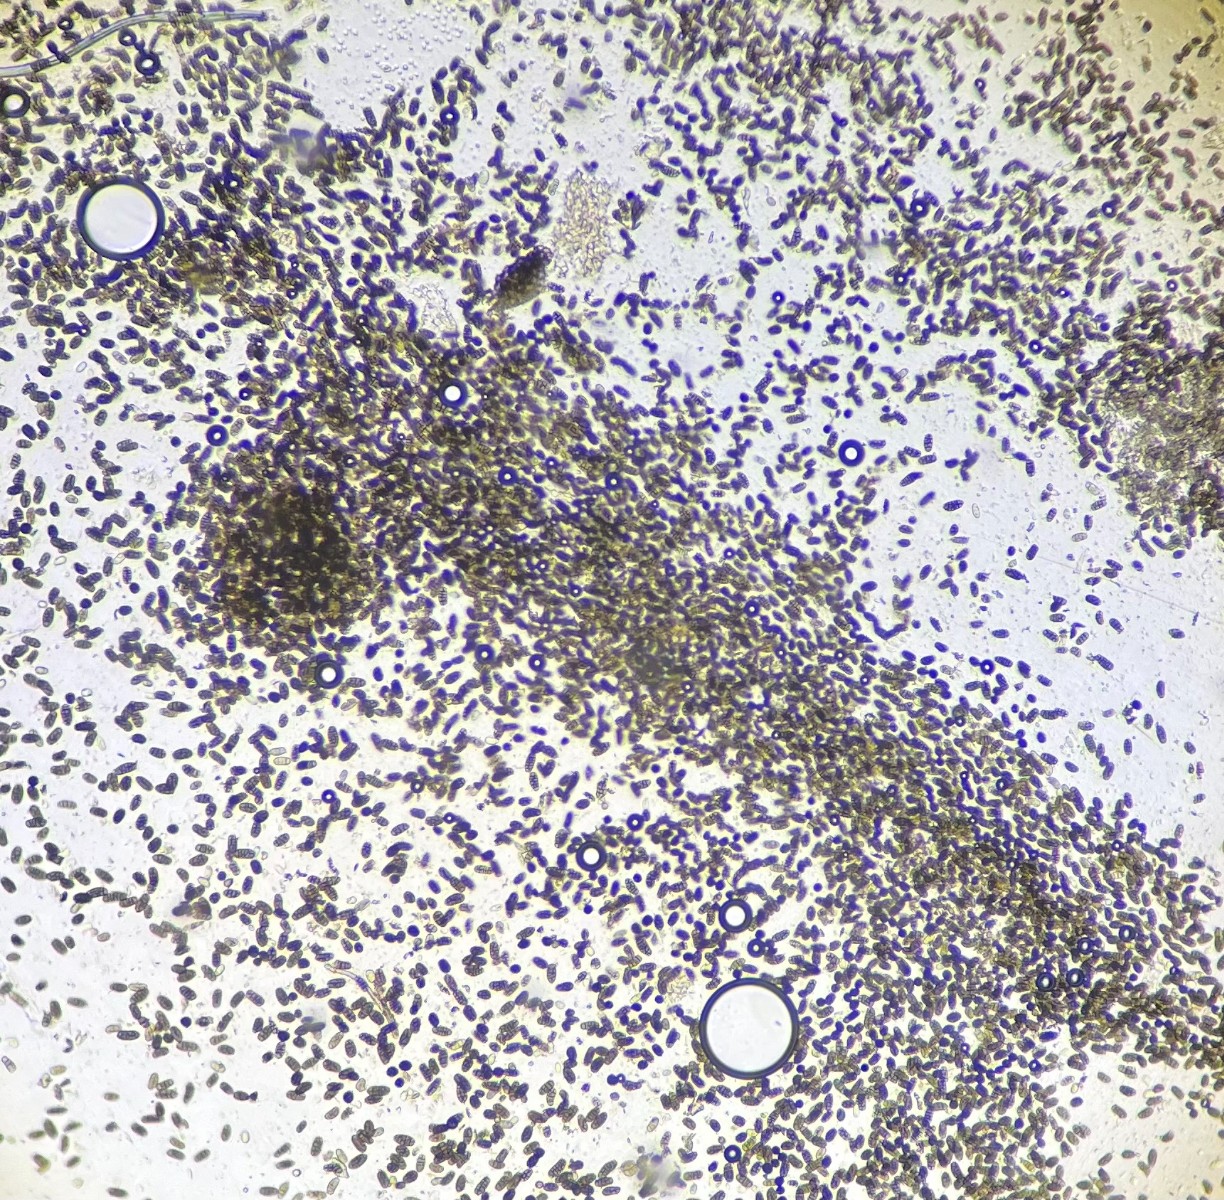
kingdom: Fungi
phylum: Ascomycota
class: Dothideomycetes
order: Pleosporales
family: Camarosporidiellaceae
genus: Camarosporidiella
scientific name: Camarosporidiella laburni
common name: guldregn-tykbær
